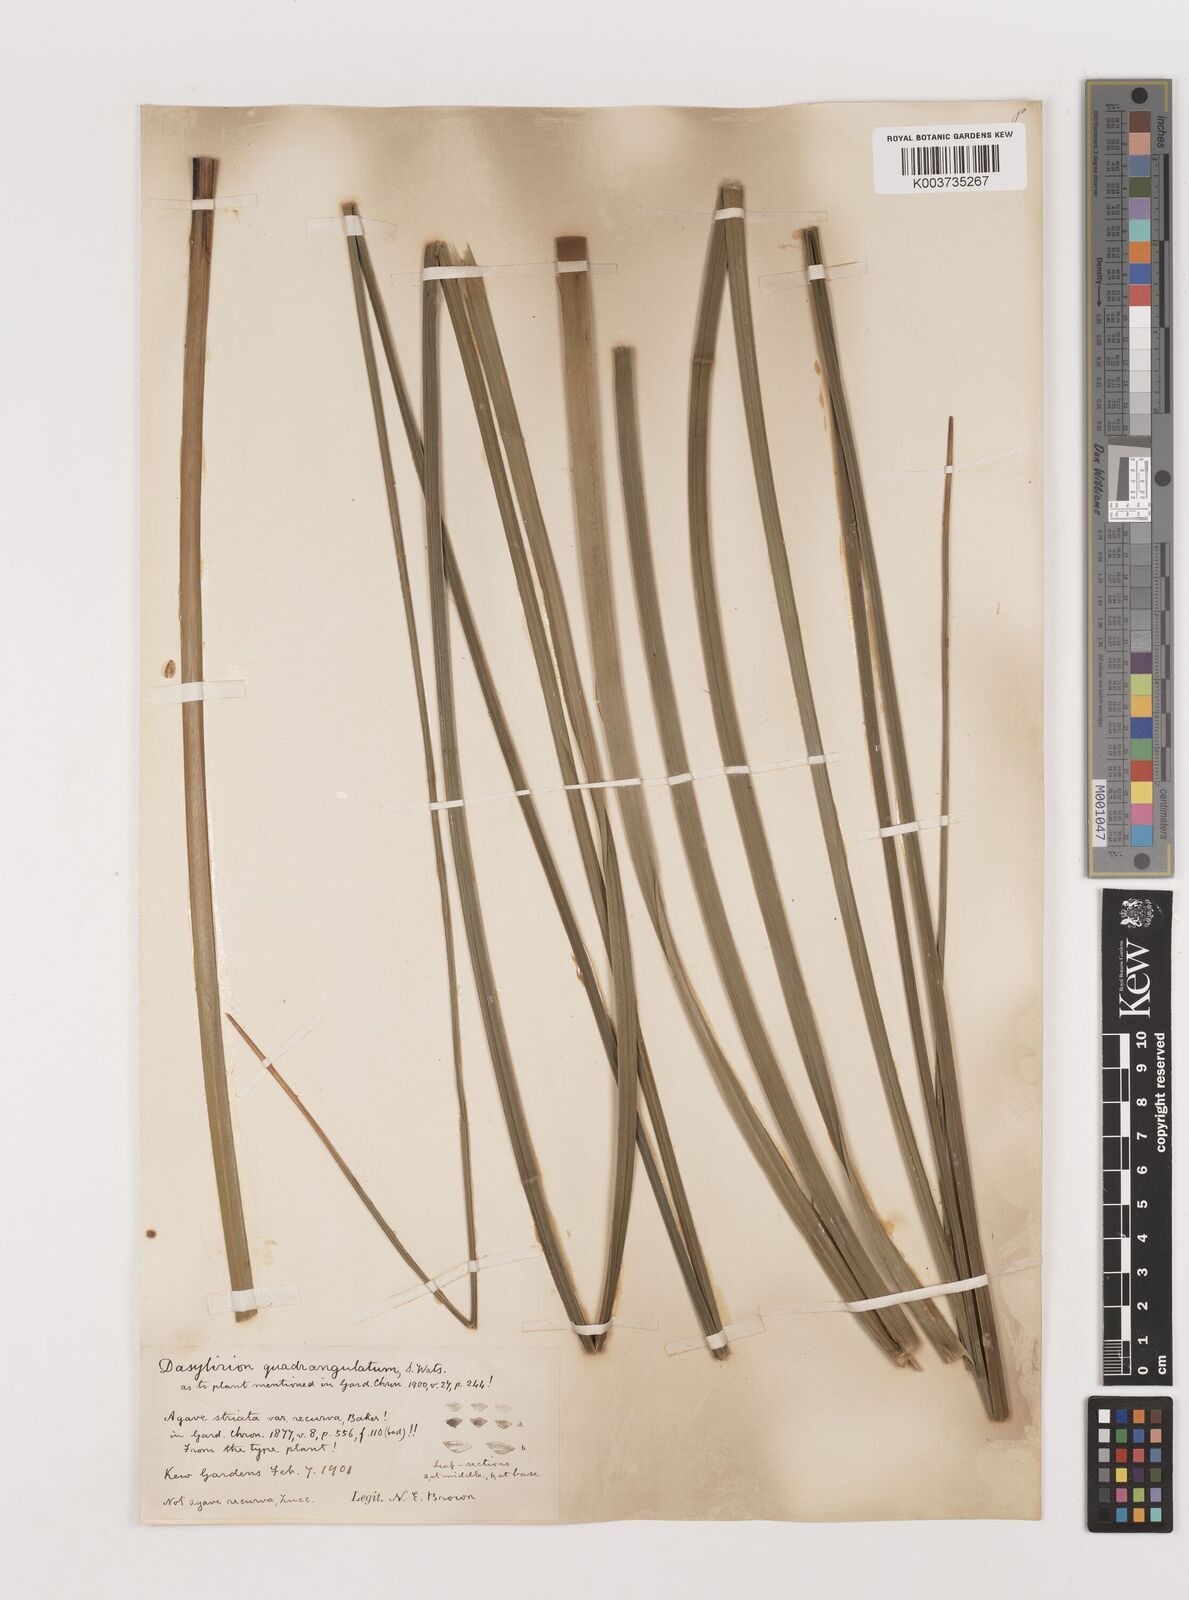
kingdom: Plantae
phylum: Tracheophyta
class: Liliopsida
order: Asparagales
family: Asparagaceae
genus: Dasylirion
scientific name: Dasylirion longissimum
